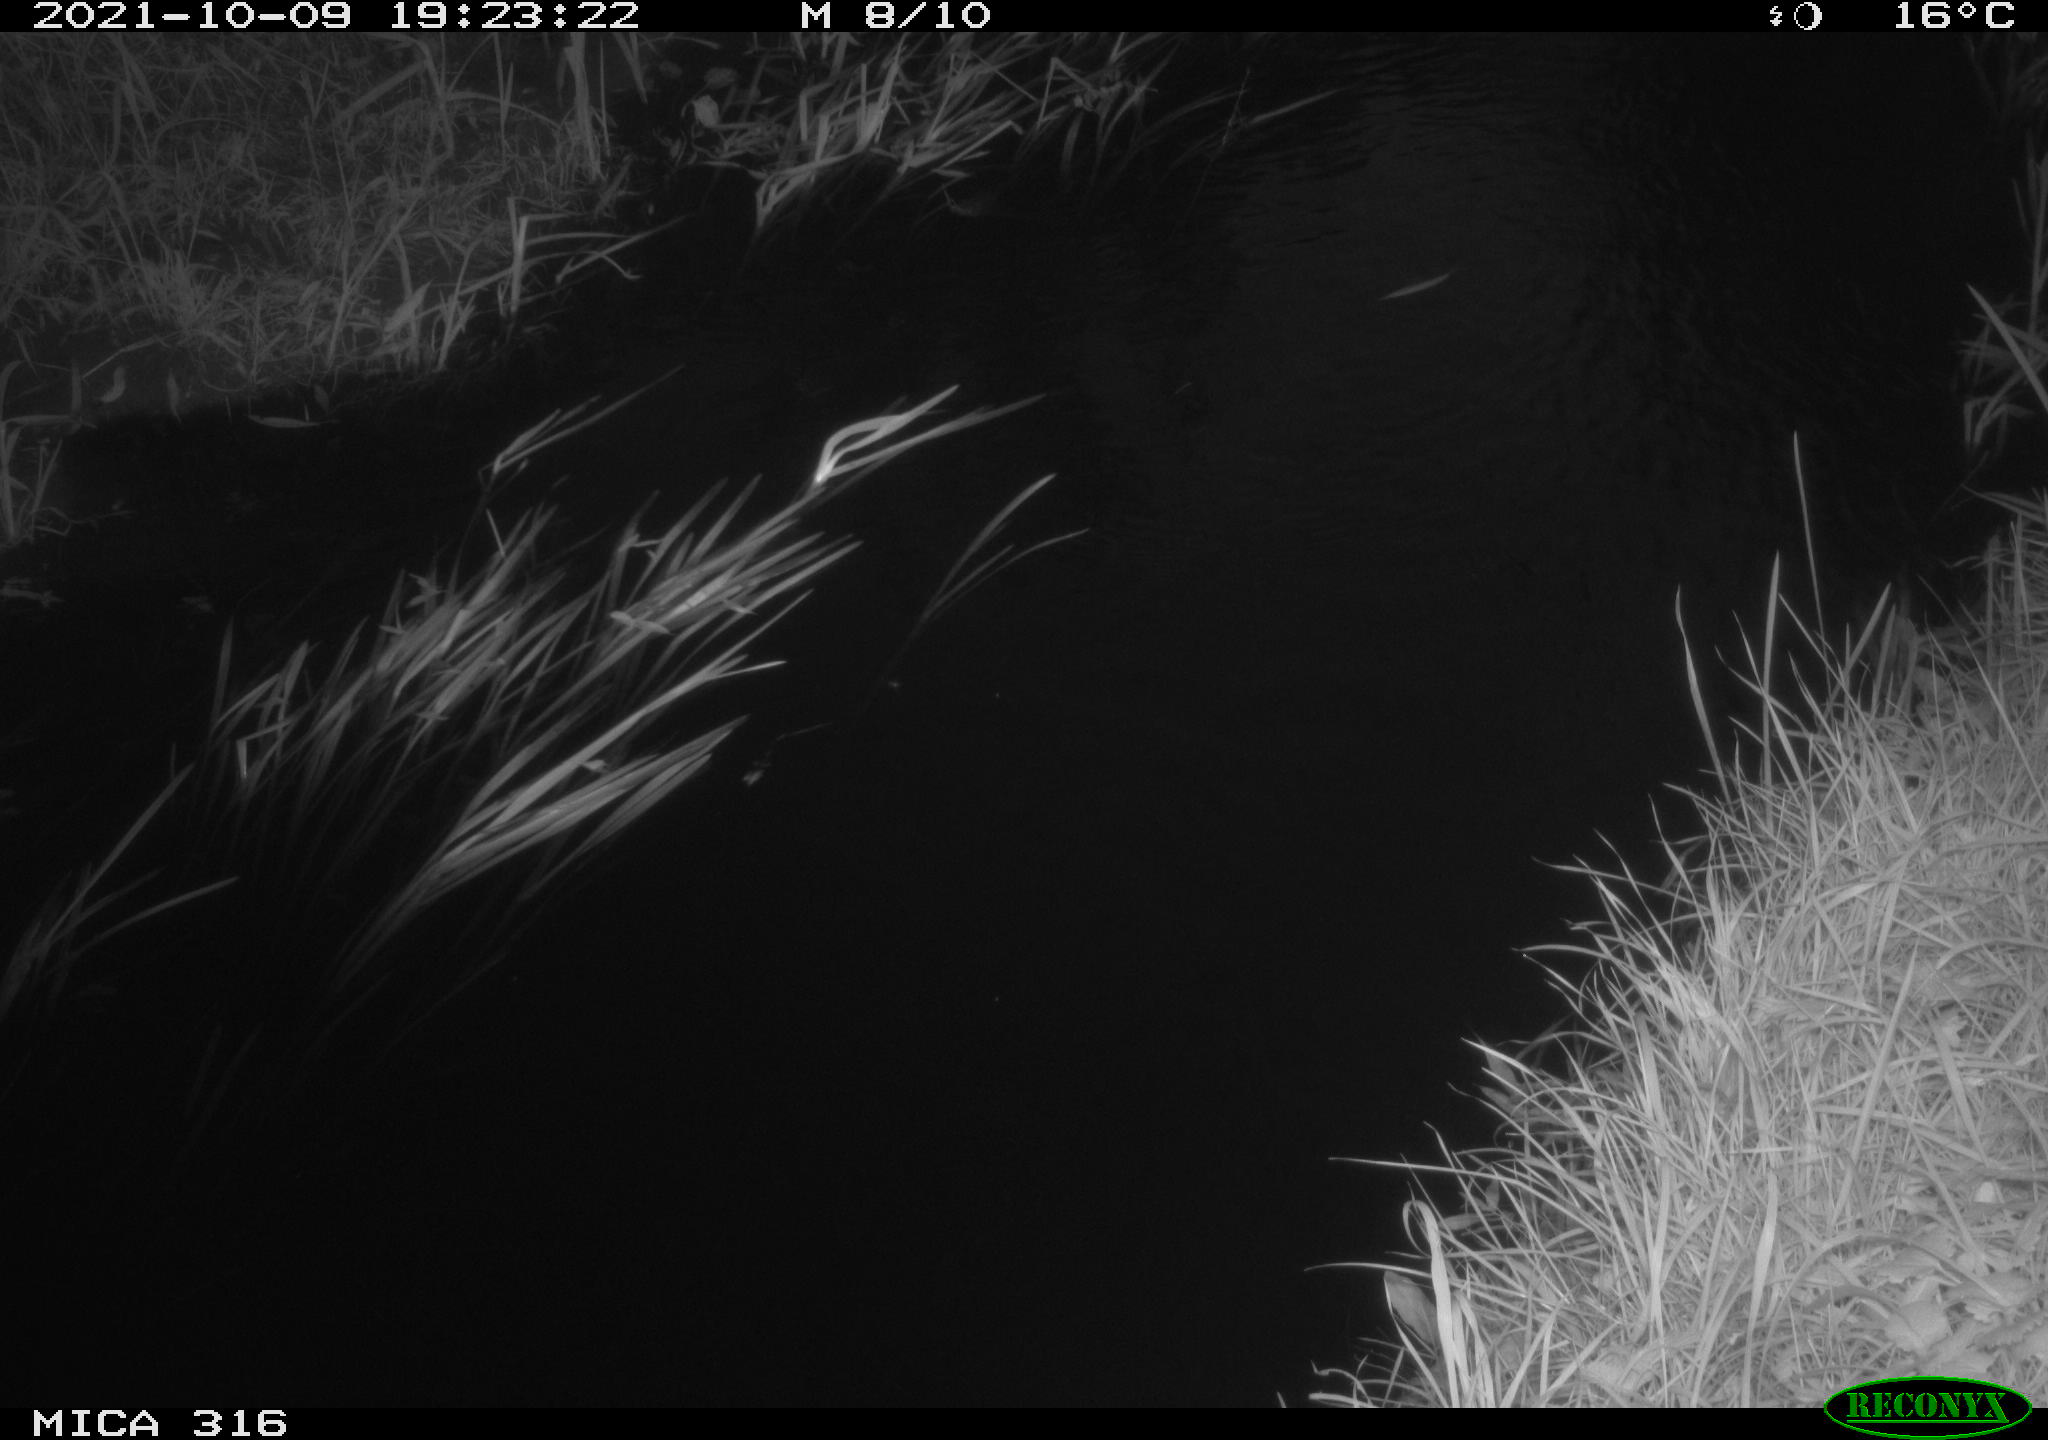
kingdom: Animalia
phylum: Chordata
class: Aves
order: Gruiformes
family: Rallidae
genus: Gallinula
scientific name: Gallinula chloropus
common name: Common moorhen
